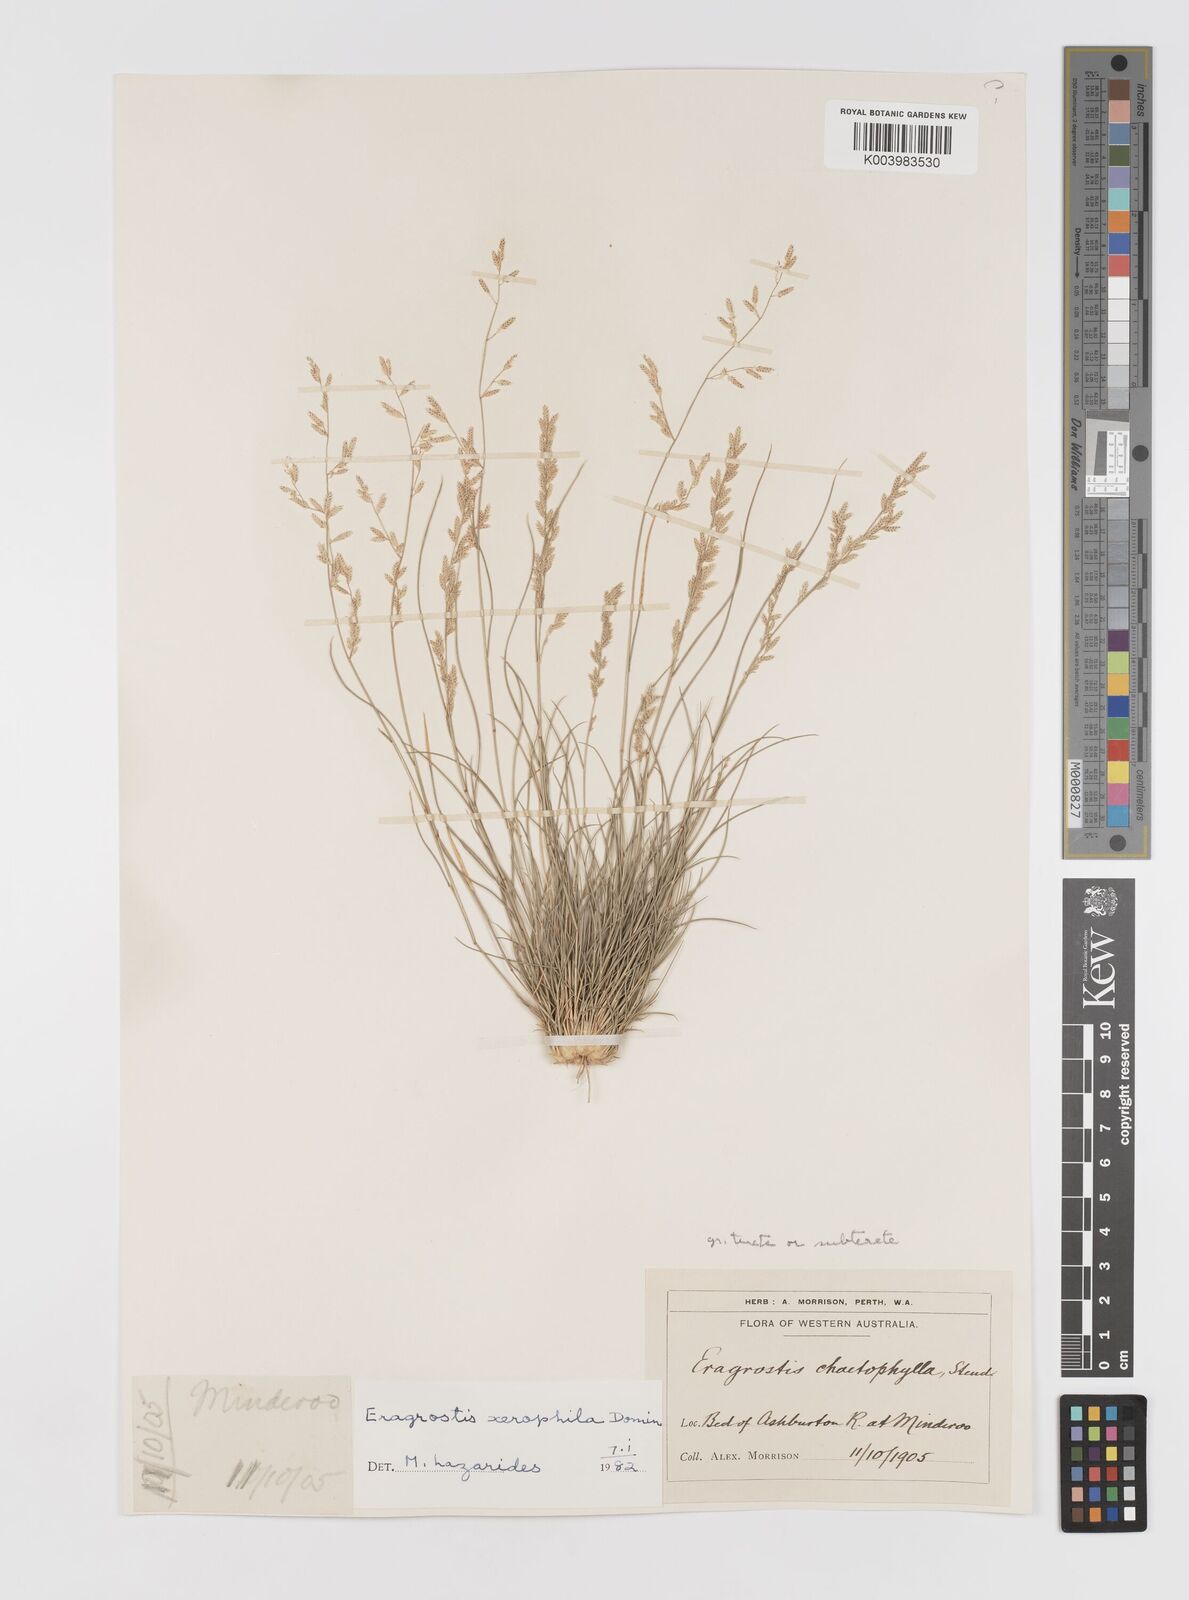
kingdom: Plantae
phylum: Tracheophyta
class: Liliopsida
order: Poales
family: Poaceae
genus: Eragrostis
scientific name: Eragrostis xerophila
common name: Wire wandarrie grass
